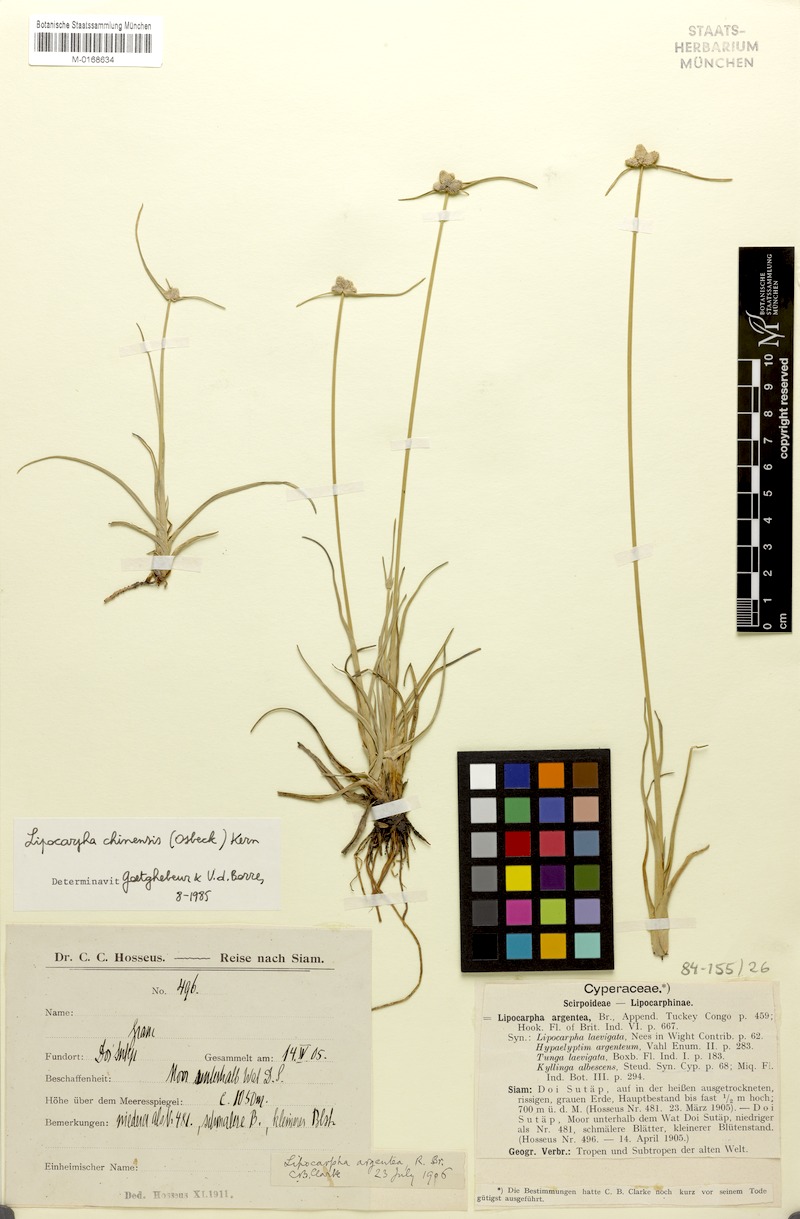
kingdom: Plantae
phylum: Tracheophyta
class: Liliopsida
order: Poales
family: Cyperaceae
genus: Cyperus
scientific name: Cyperus albescens
